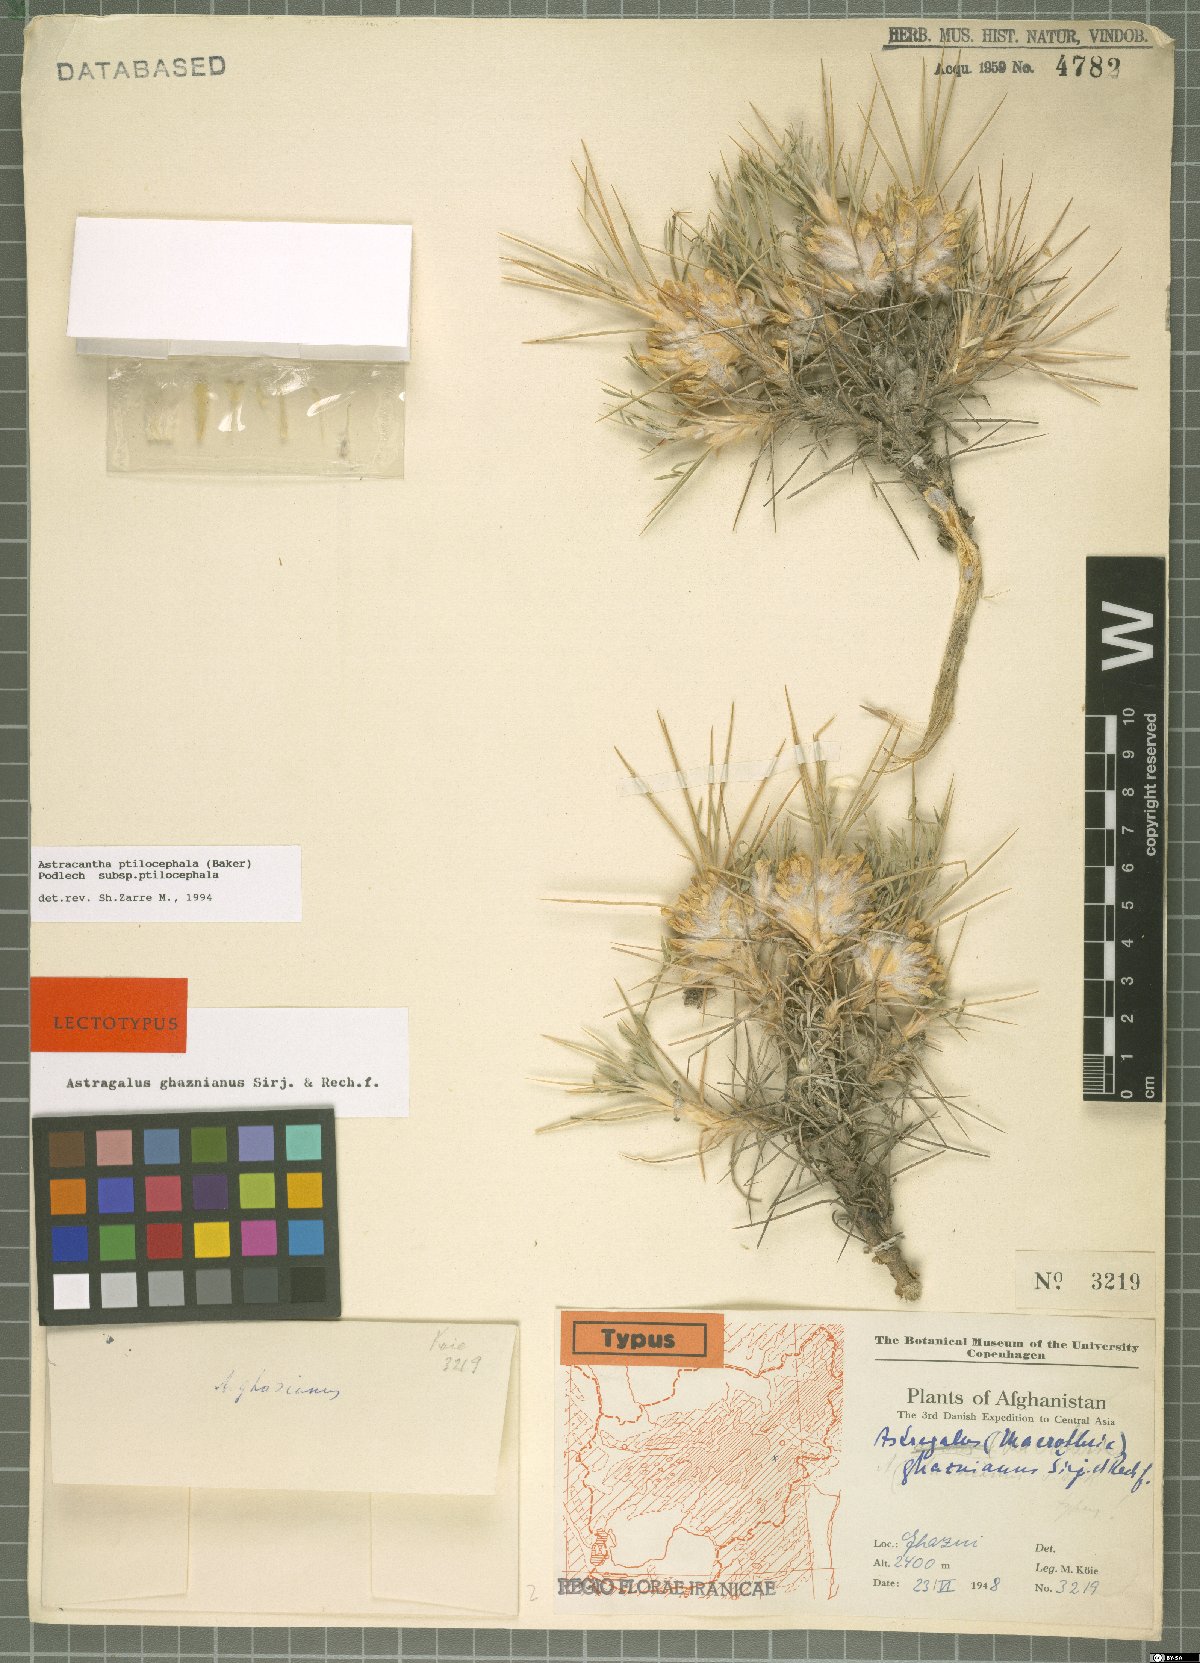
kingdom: Plantae
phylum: Tracheophyta
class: Magnoliopsida
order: Fabales
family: Fabaceae
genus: Astragalus
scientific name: Astragalus ptilocephalus
